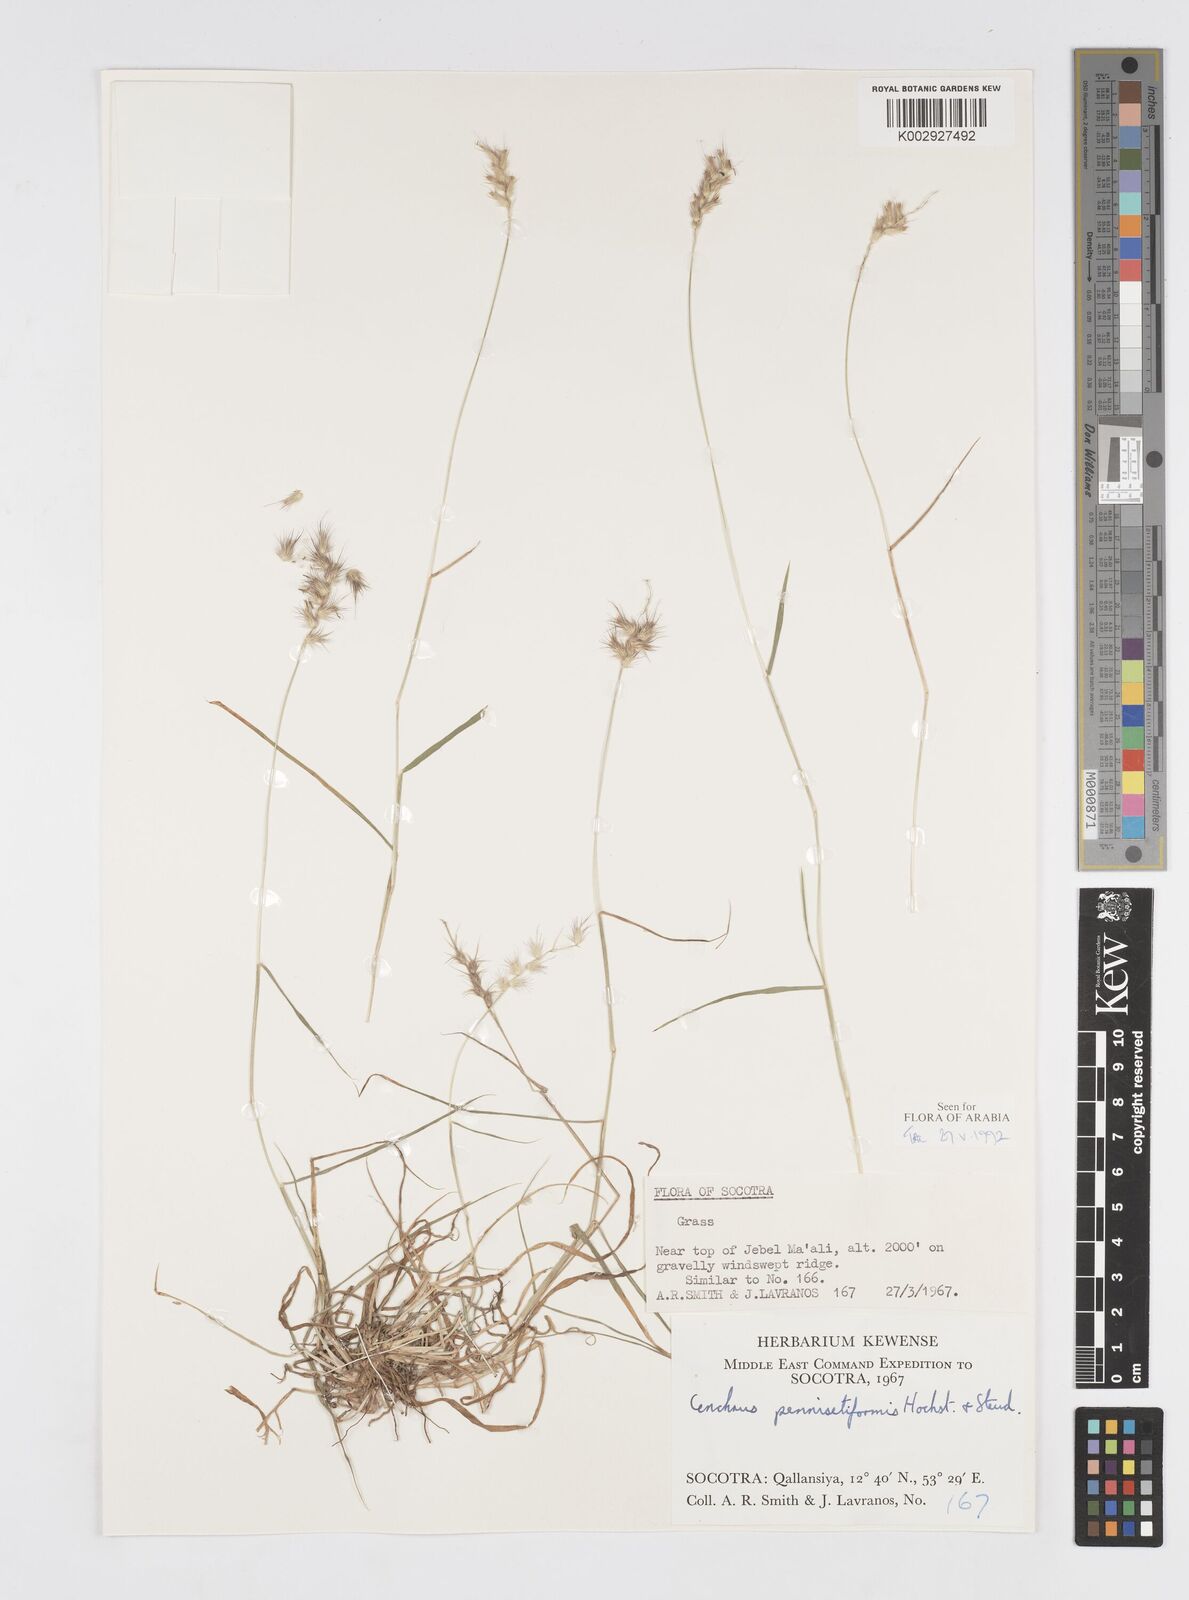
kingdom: Plantae
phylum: Tracheophyta
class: Liliopsida
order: Poales
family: Poaceae
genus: Cenchrus
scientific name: Cenchrus pennisetiformis
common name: Cloncurry
